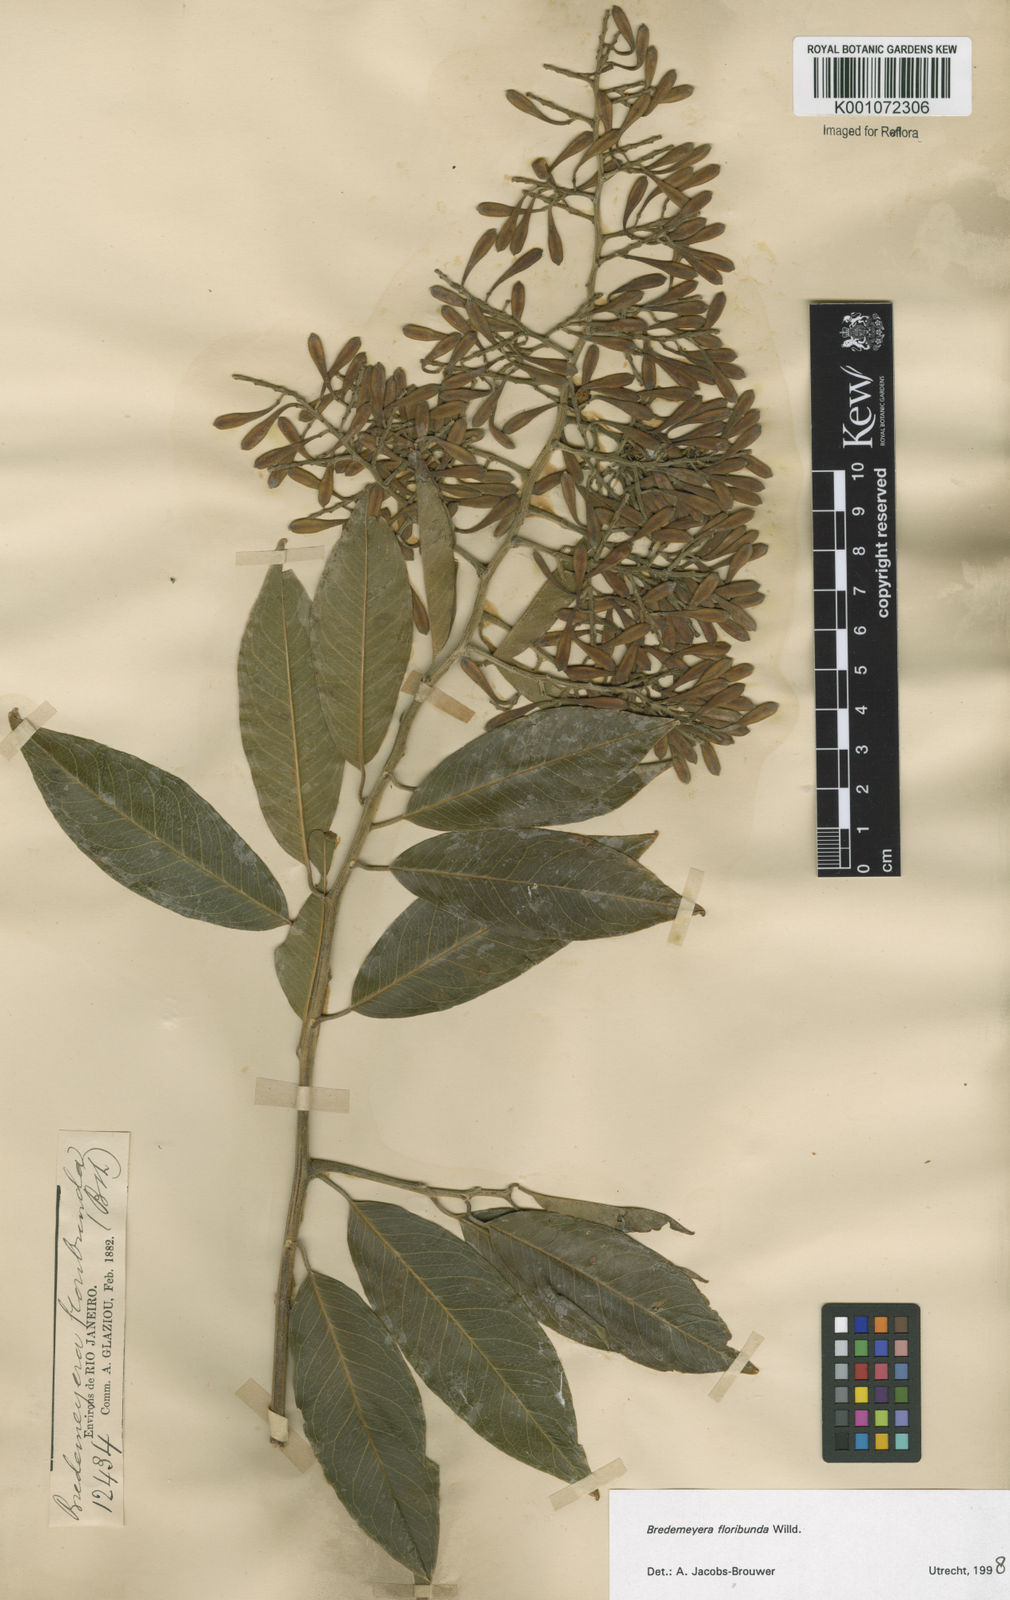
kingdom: Plantae
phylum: Tracheophyta
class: Magnoliopsida
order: Fabales
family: Polygalaceae
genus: Bredemeyera
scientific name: Bredemeyera floribunda
